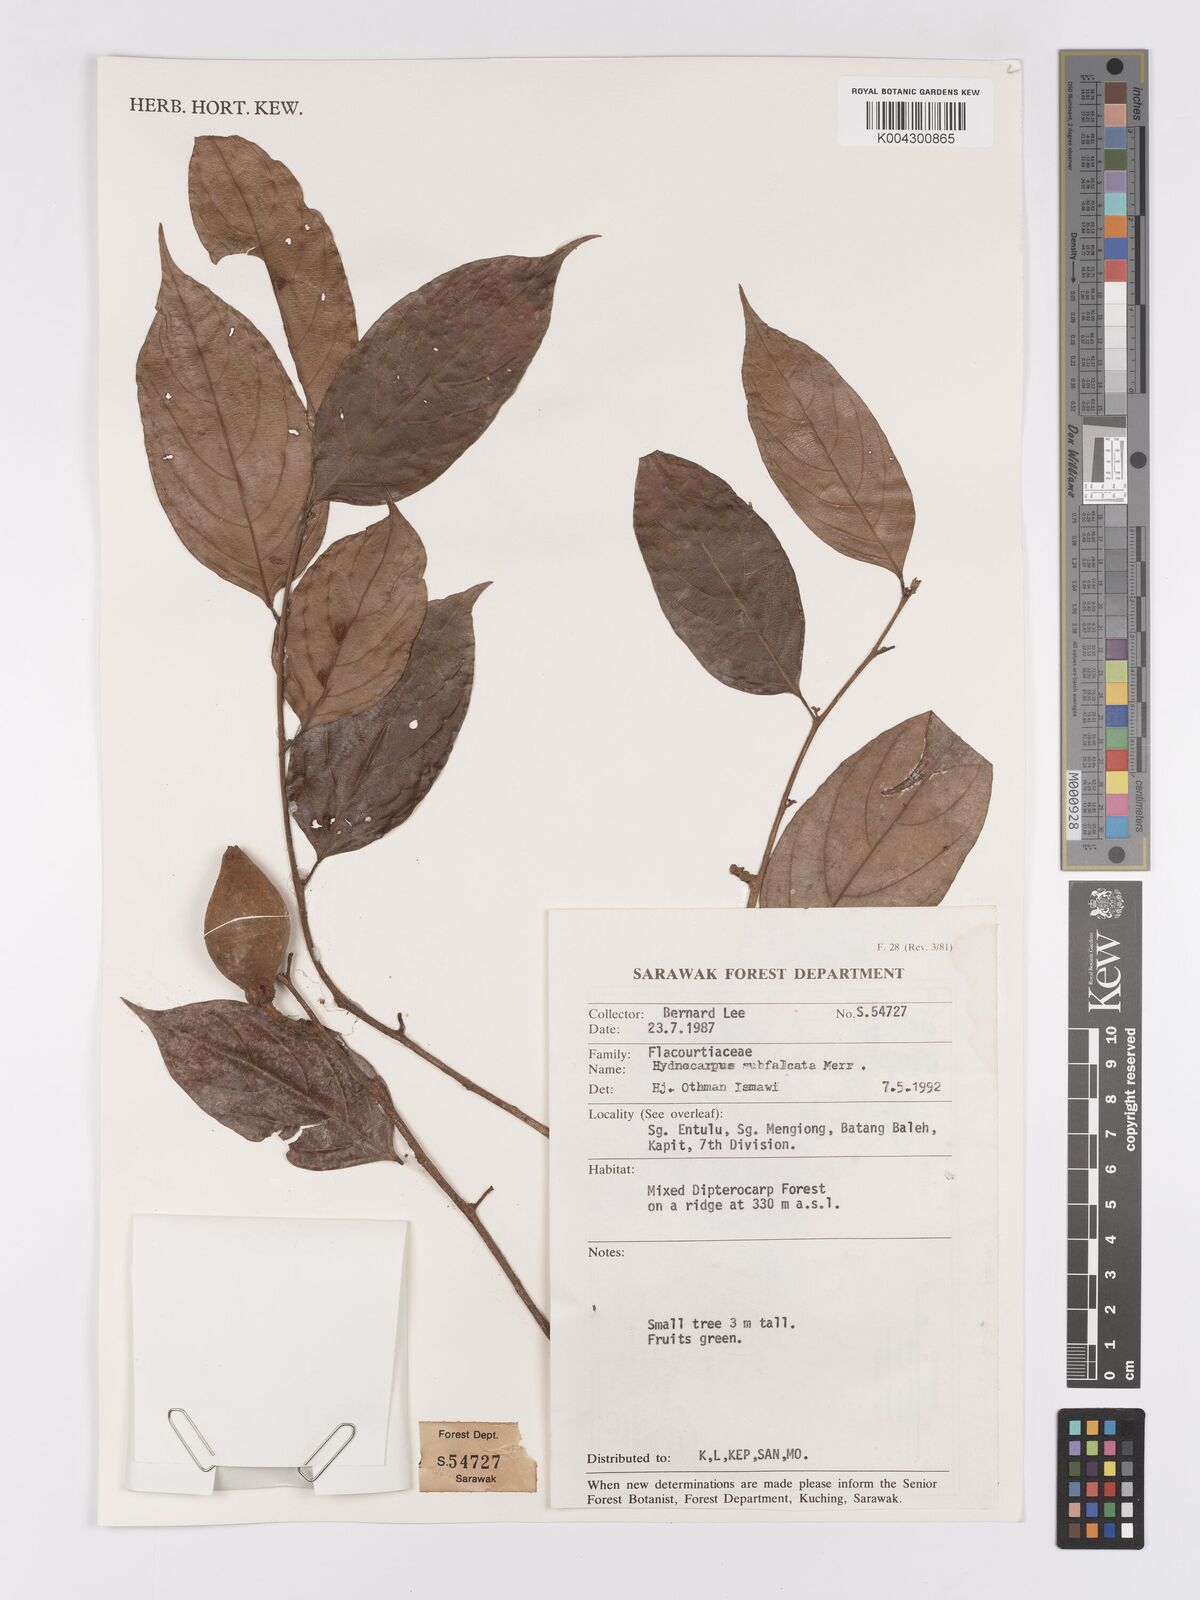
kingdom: Plantae
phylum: Tracheophyta
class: Magnoliopsida
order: Malpighiales
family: Achariaceae
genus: Hydnocarpus
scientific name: Hydnocarpus subfalcatus
